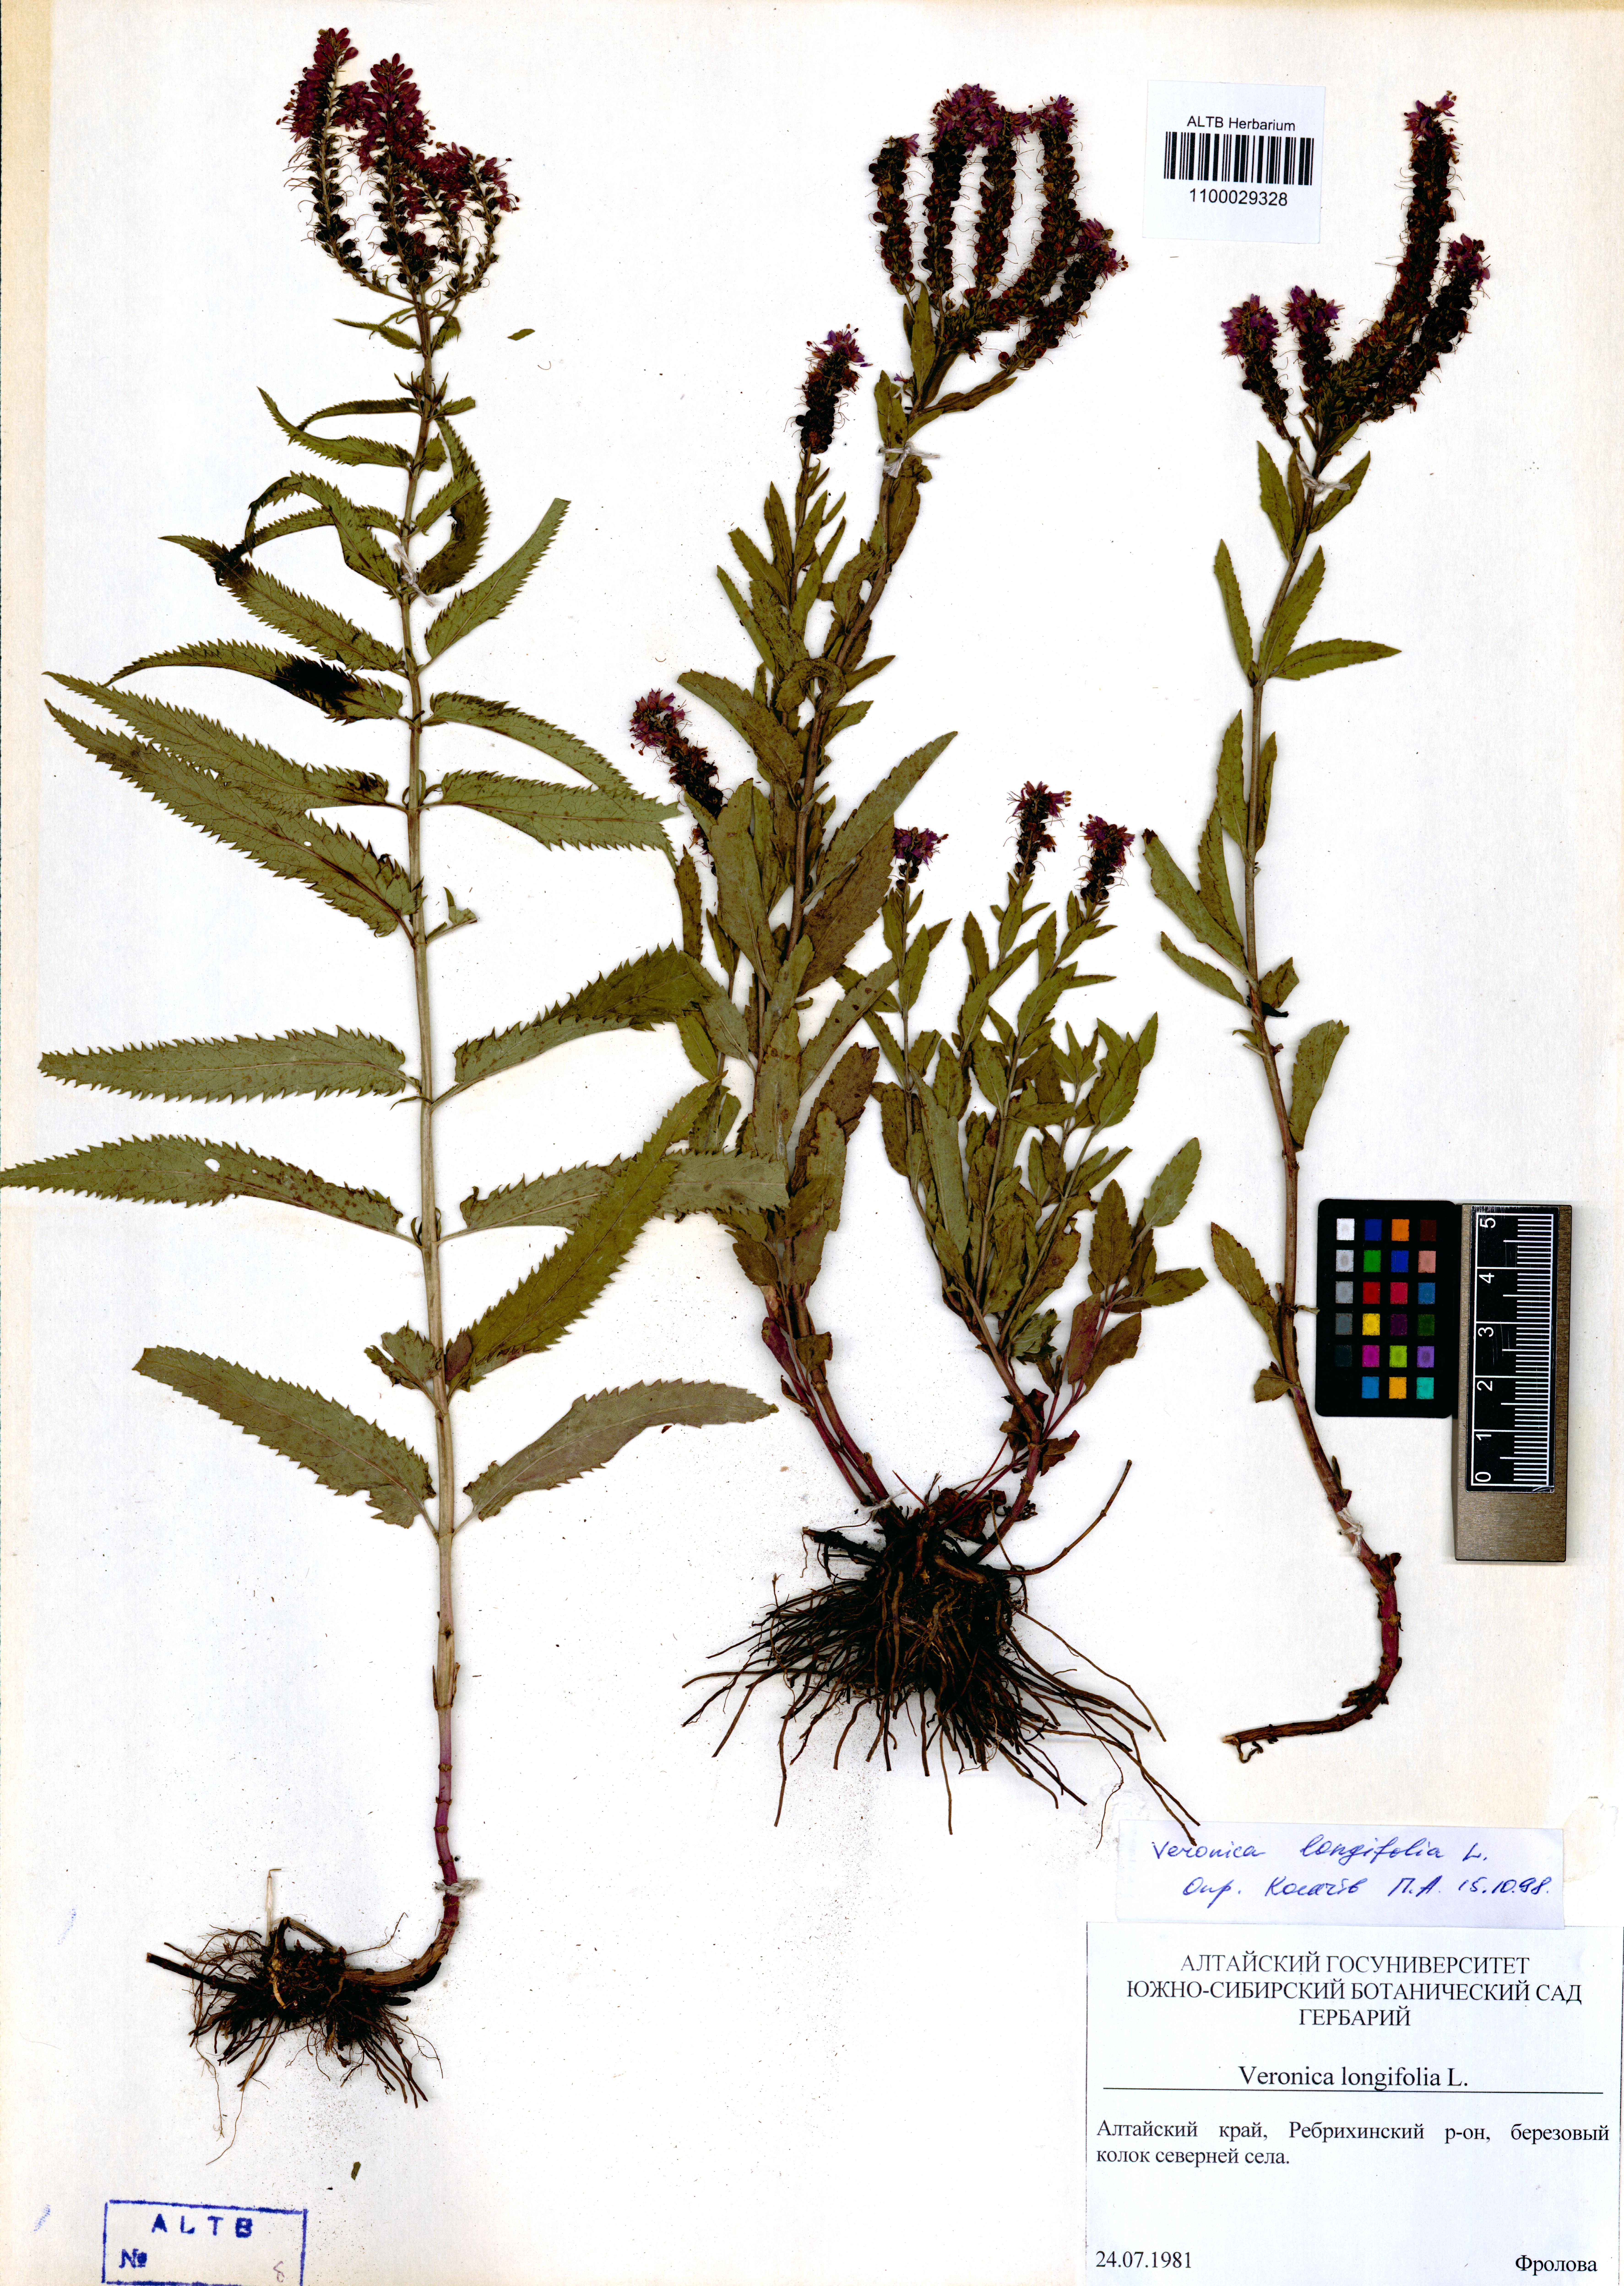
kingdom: Plantae
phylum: Tracheophyta
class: Magnoliopsida
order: Lamiales
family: Plantaginaceae
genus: Veronica
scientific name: Veronica longifolia
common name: Garden speedwell
